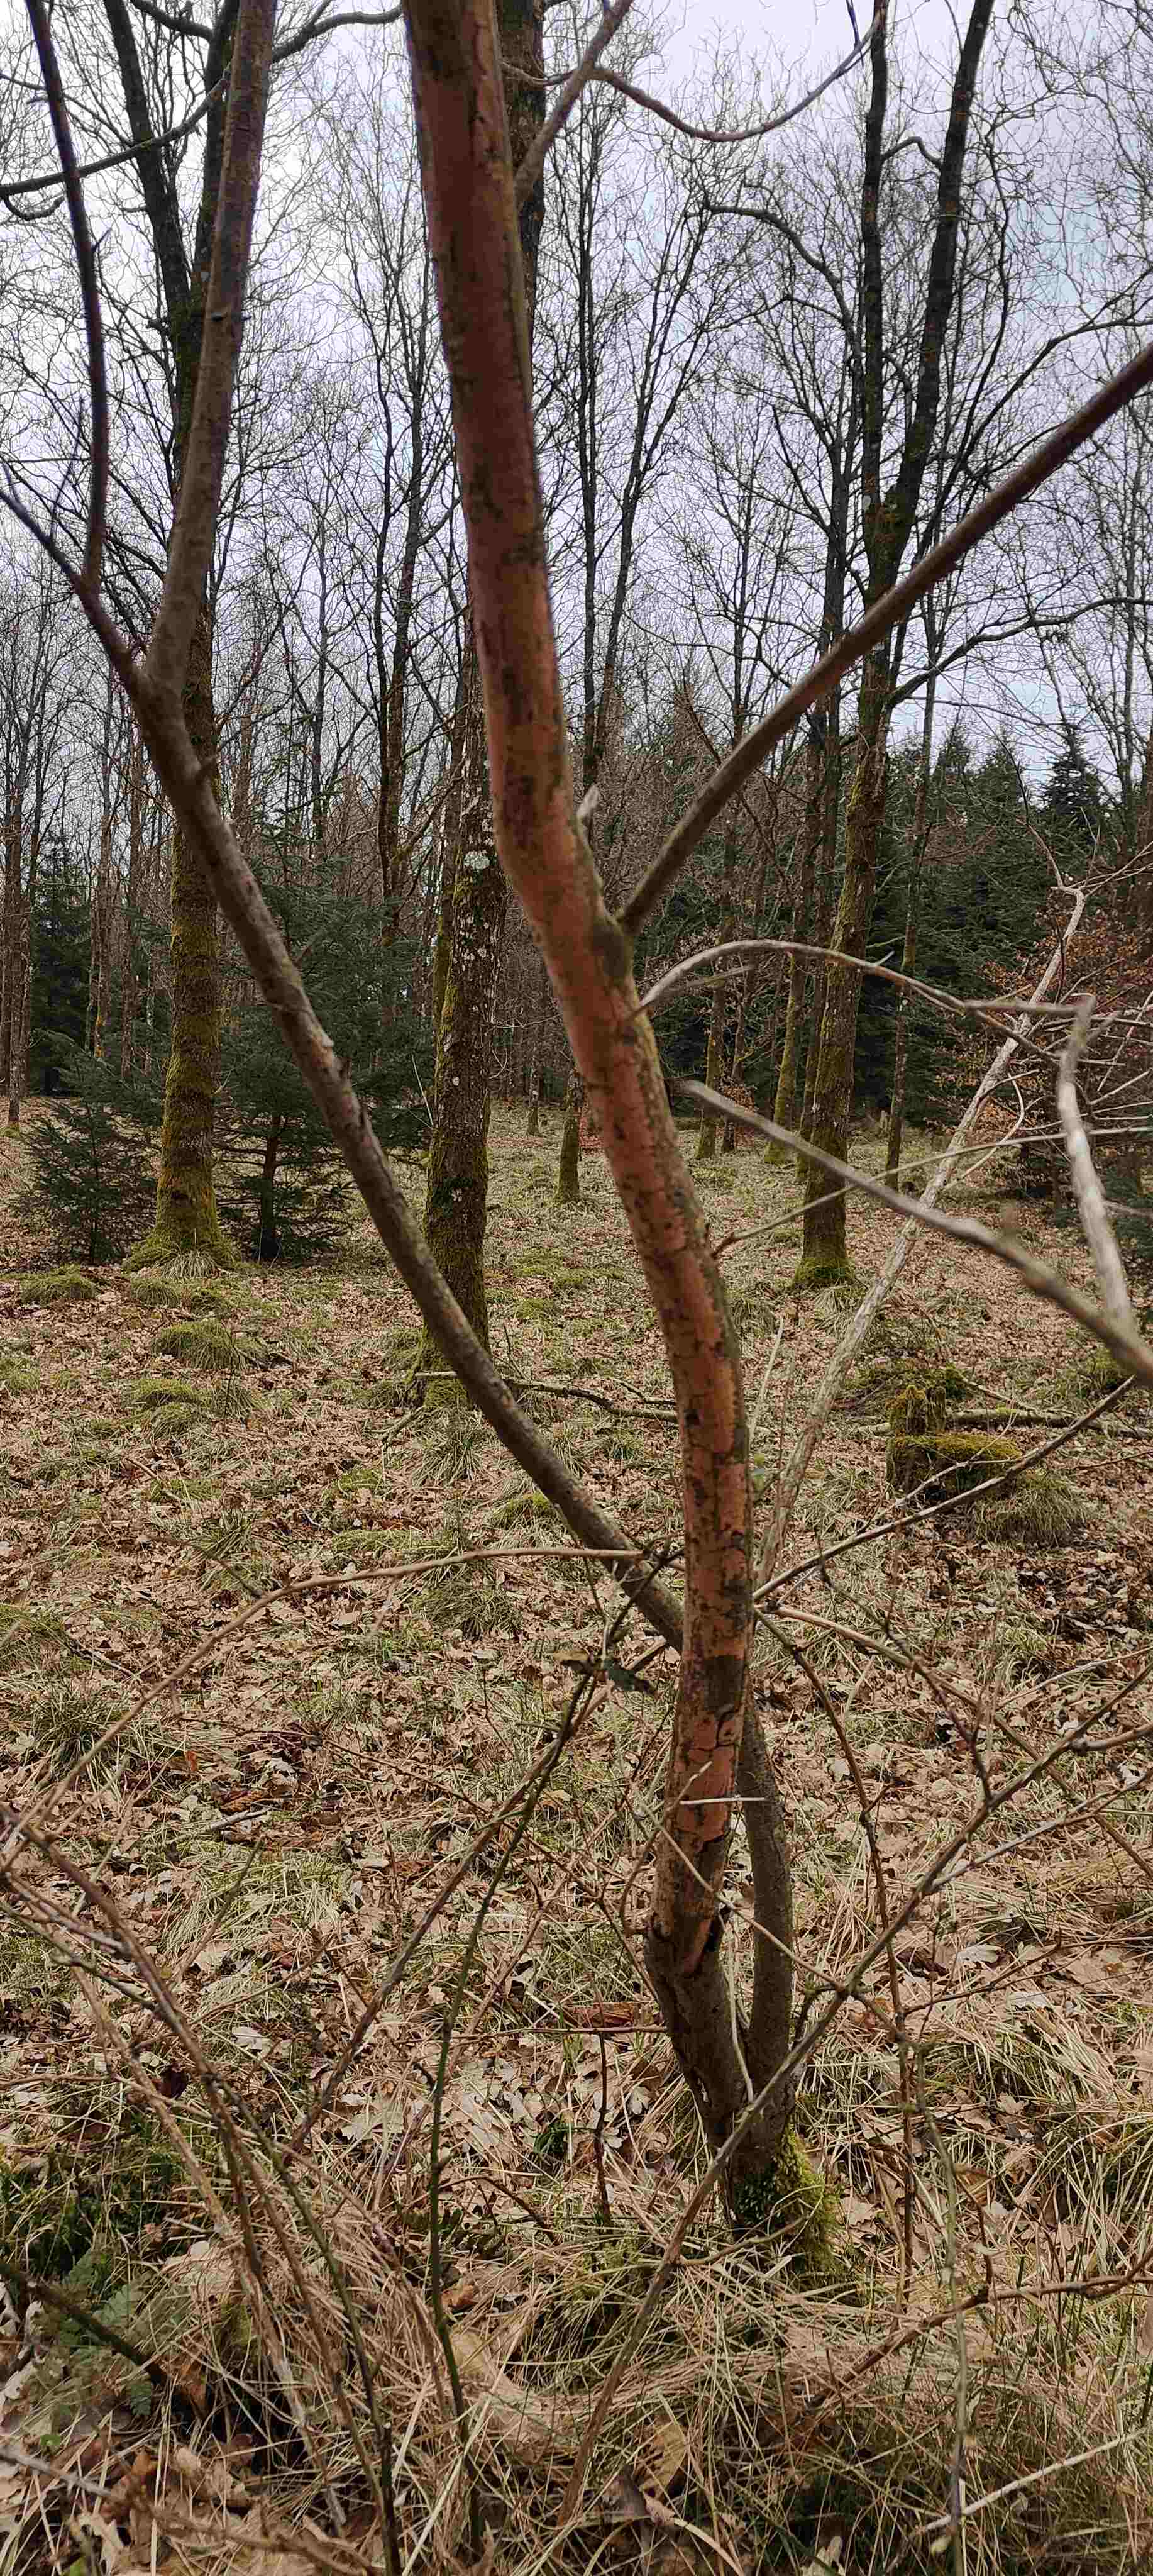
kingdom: Fungi
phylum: Basidiomycota
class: Agaricomycetes
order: Russulales
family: Peniophoraceae
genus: Peniophora
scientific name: Peniophora incarnata
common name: laksefarvet voksskind
